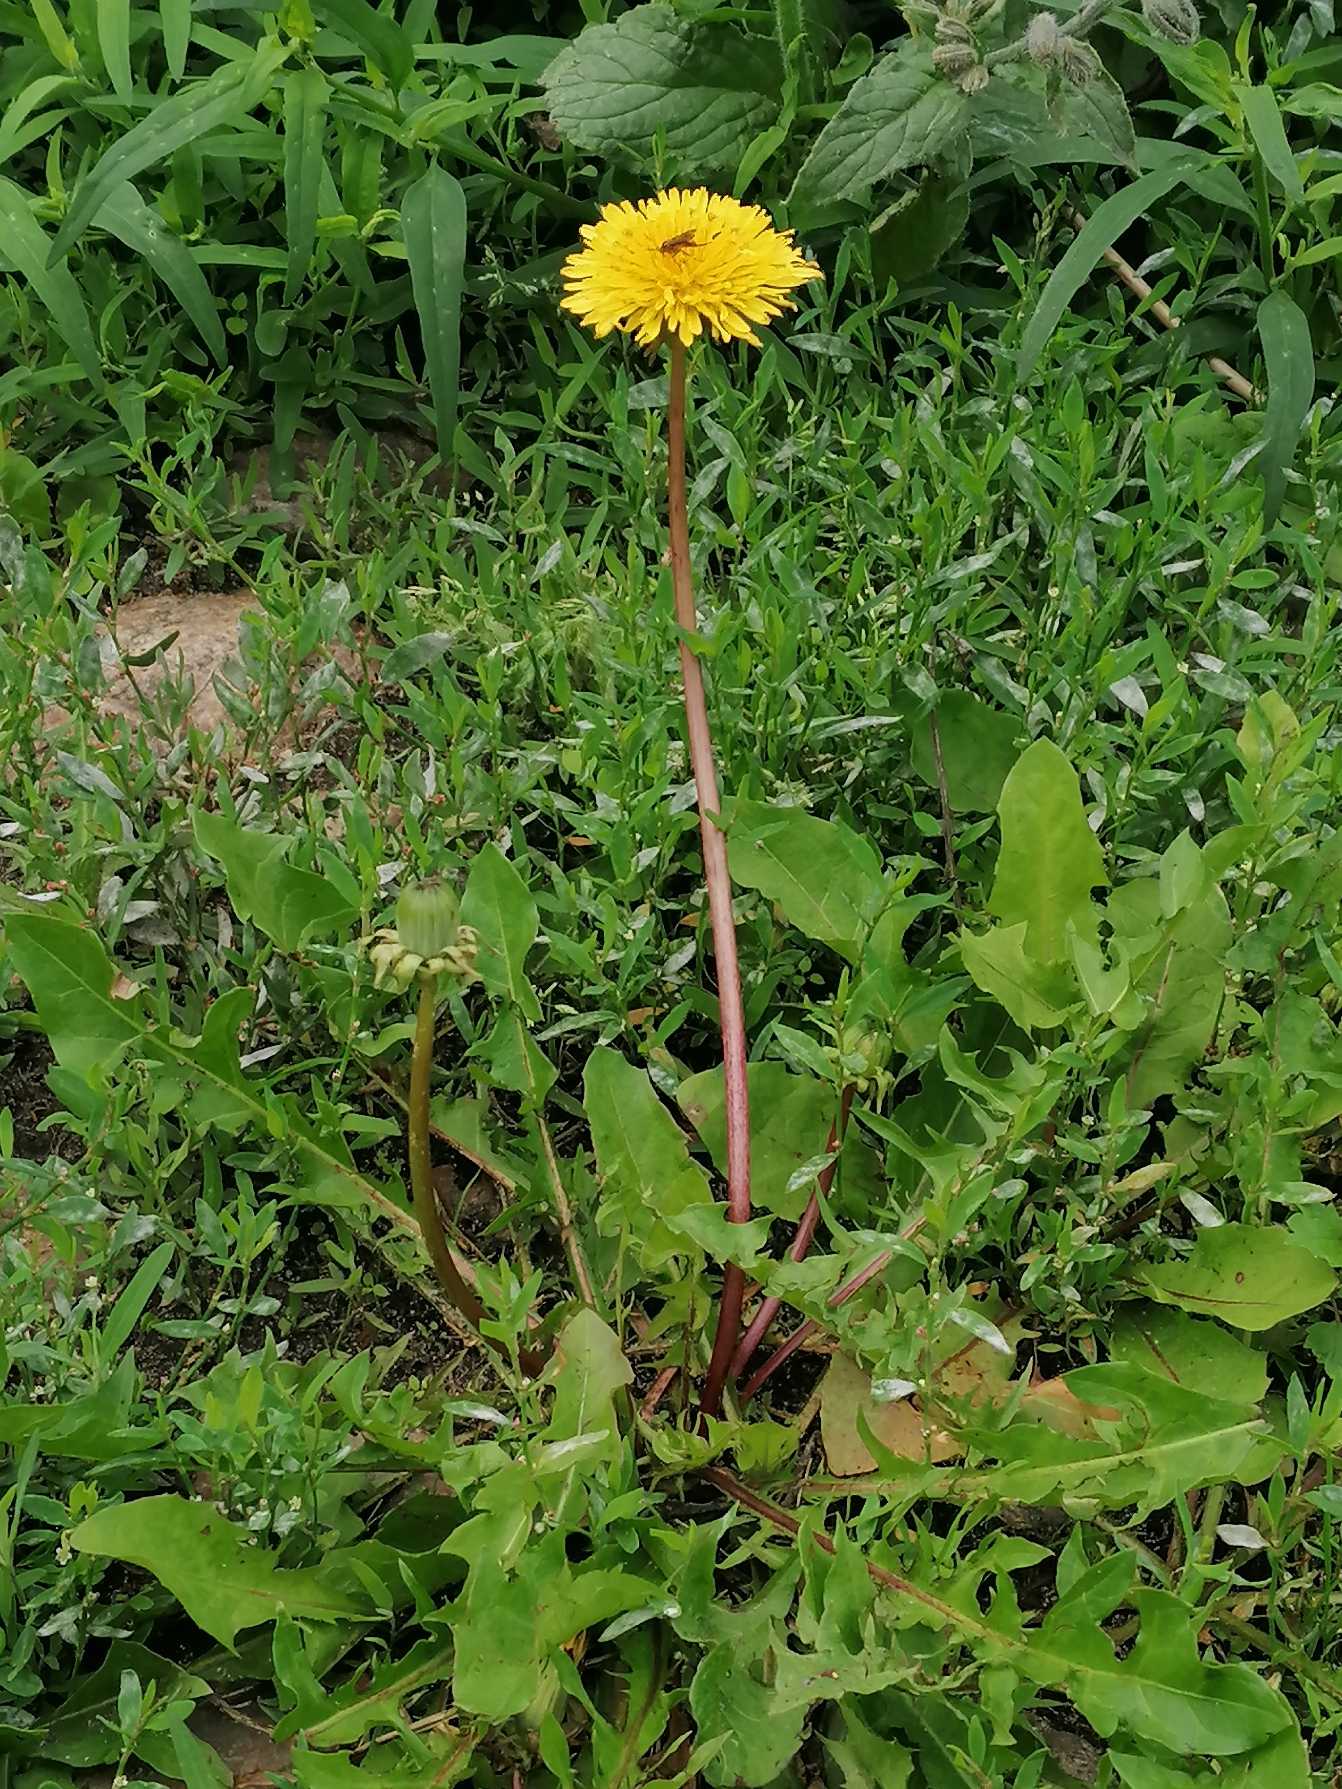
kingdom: Plantae
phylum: Tracheophyta
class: Magnoliopsida
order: Asterales
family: Asteraceae
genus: Taraxacum
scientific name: Taraxacum
